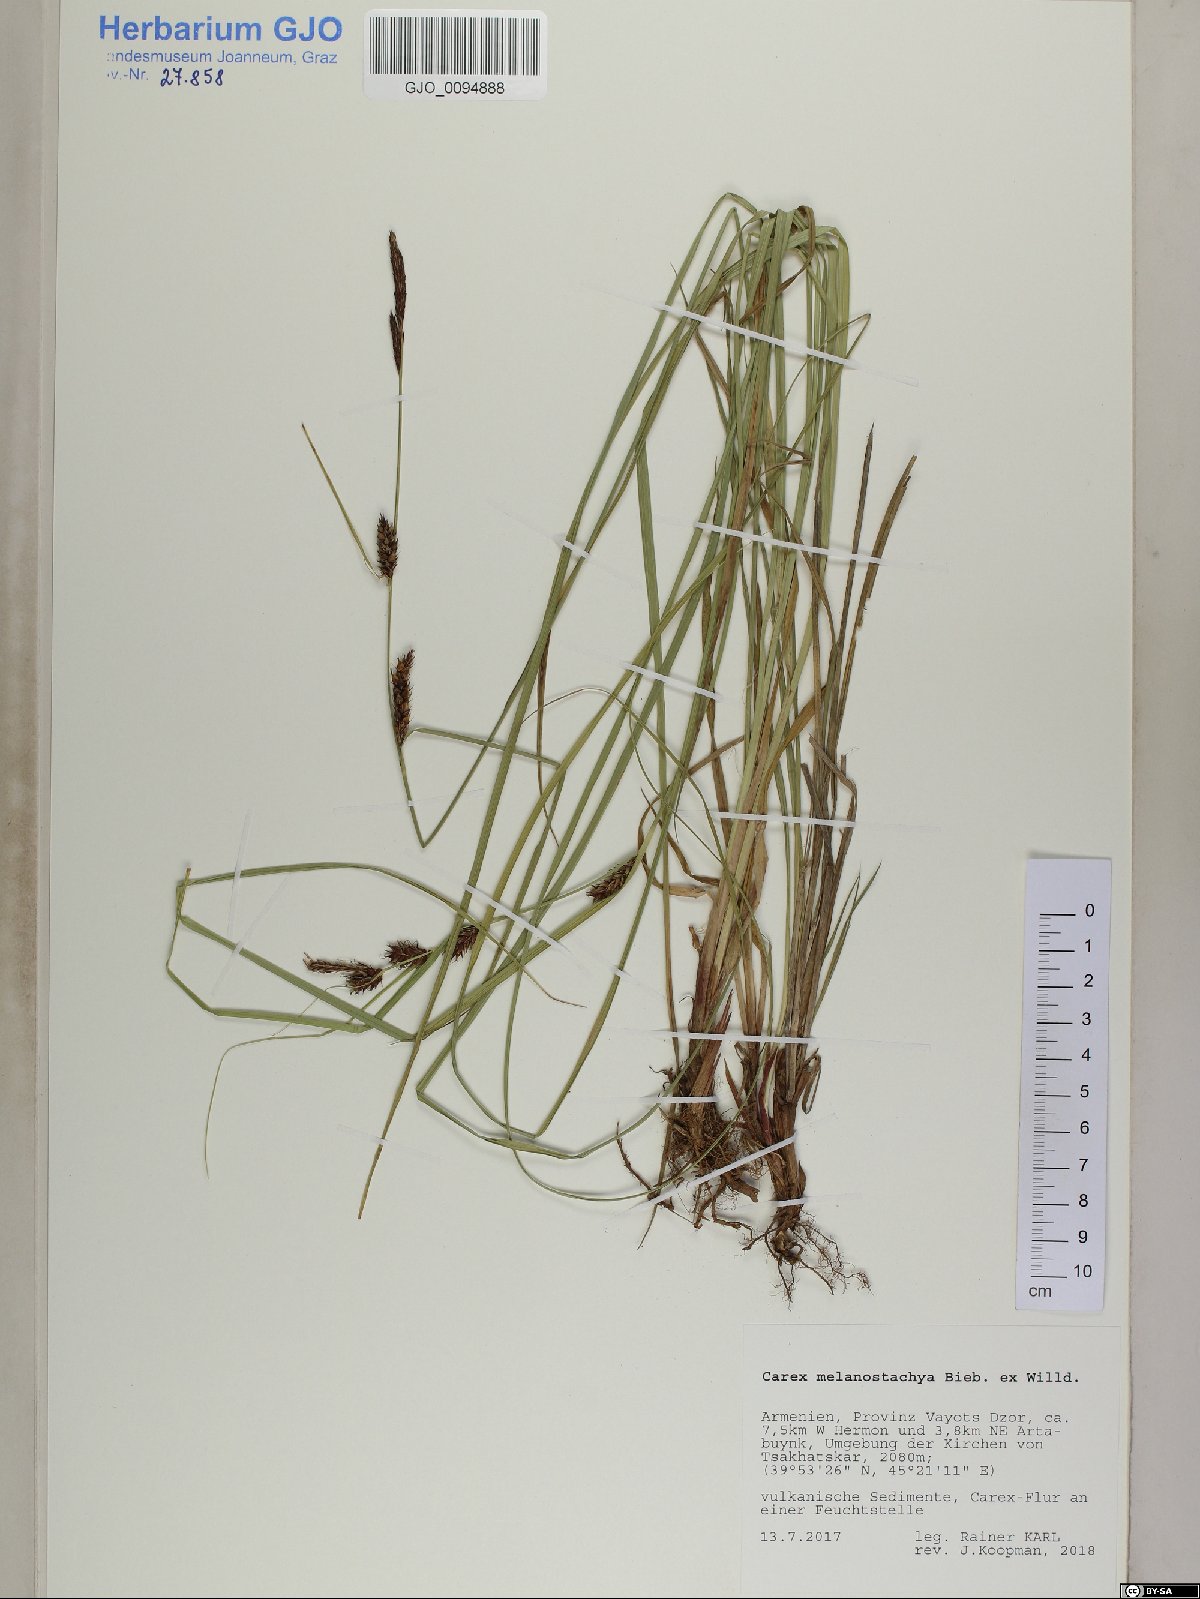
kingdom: Plantae
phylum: Tracheophyta
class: Liliopsida
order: Poales
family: Cyperaceae
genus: Carex
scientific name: Carex melanostachya
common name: Black-spiked sedge
